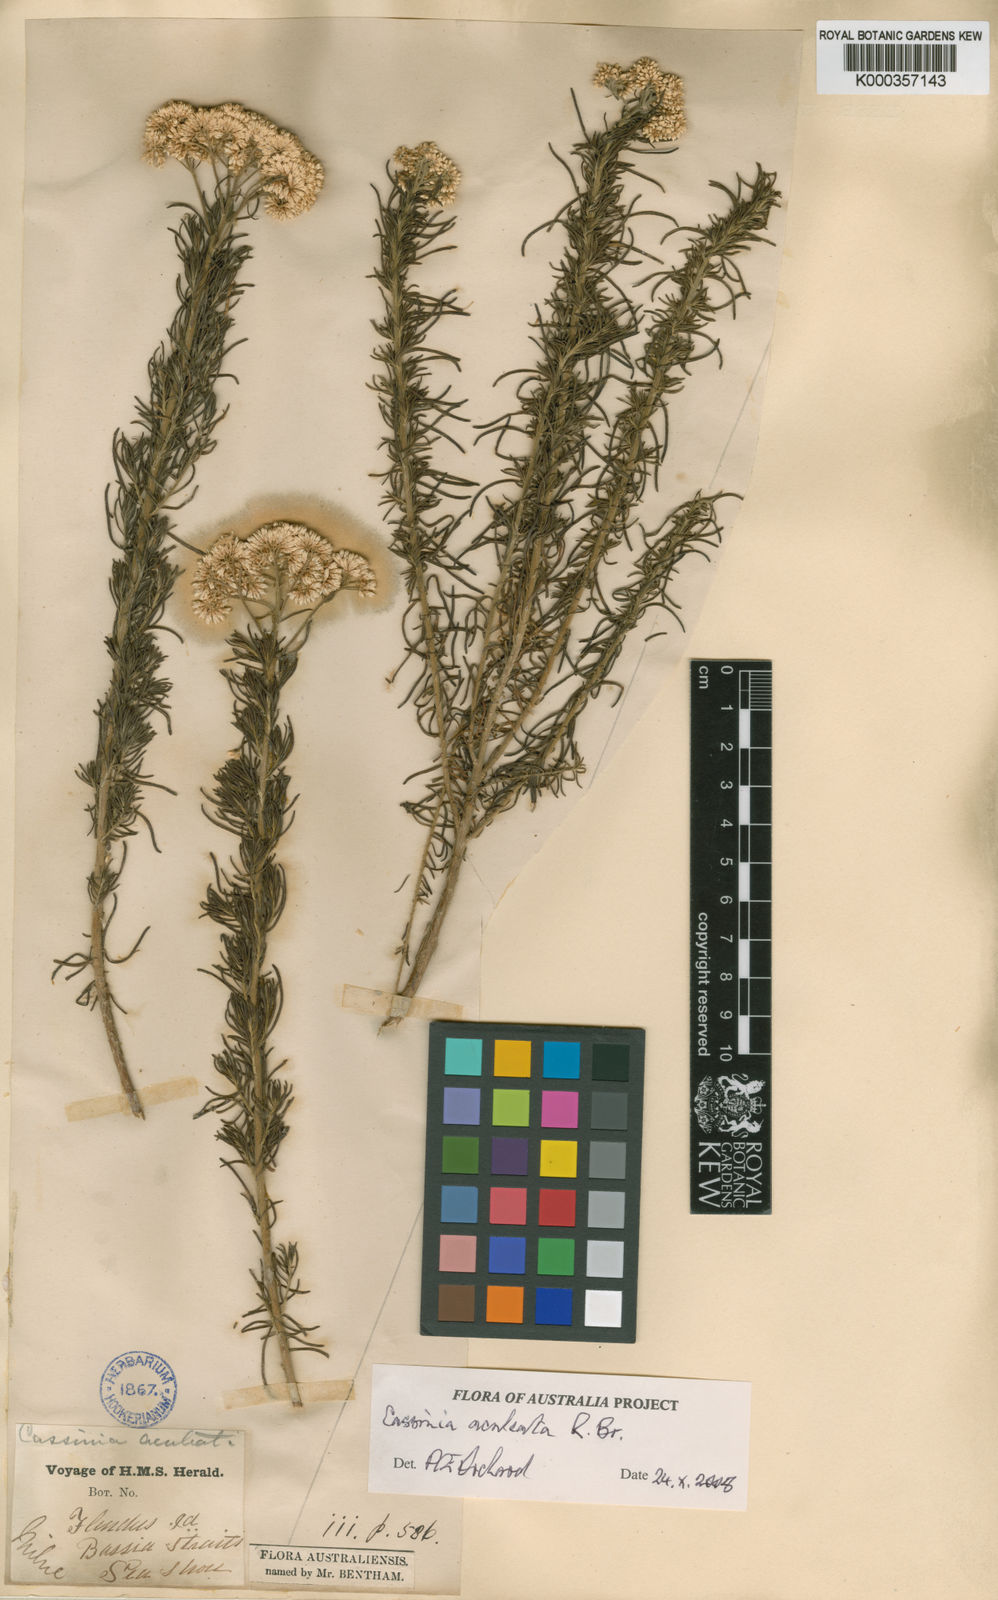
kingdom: Plantae
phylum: Tracheophyta
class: Magnoliopsida
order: Asterales
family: Asteraceae
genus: Cassinia
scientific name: Cassinia aculeata
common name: Australian tauhinu
